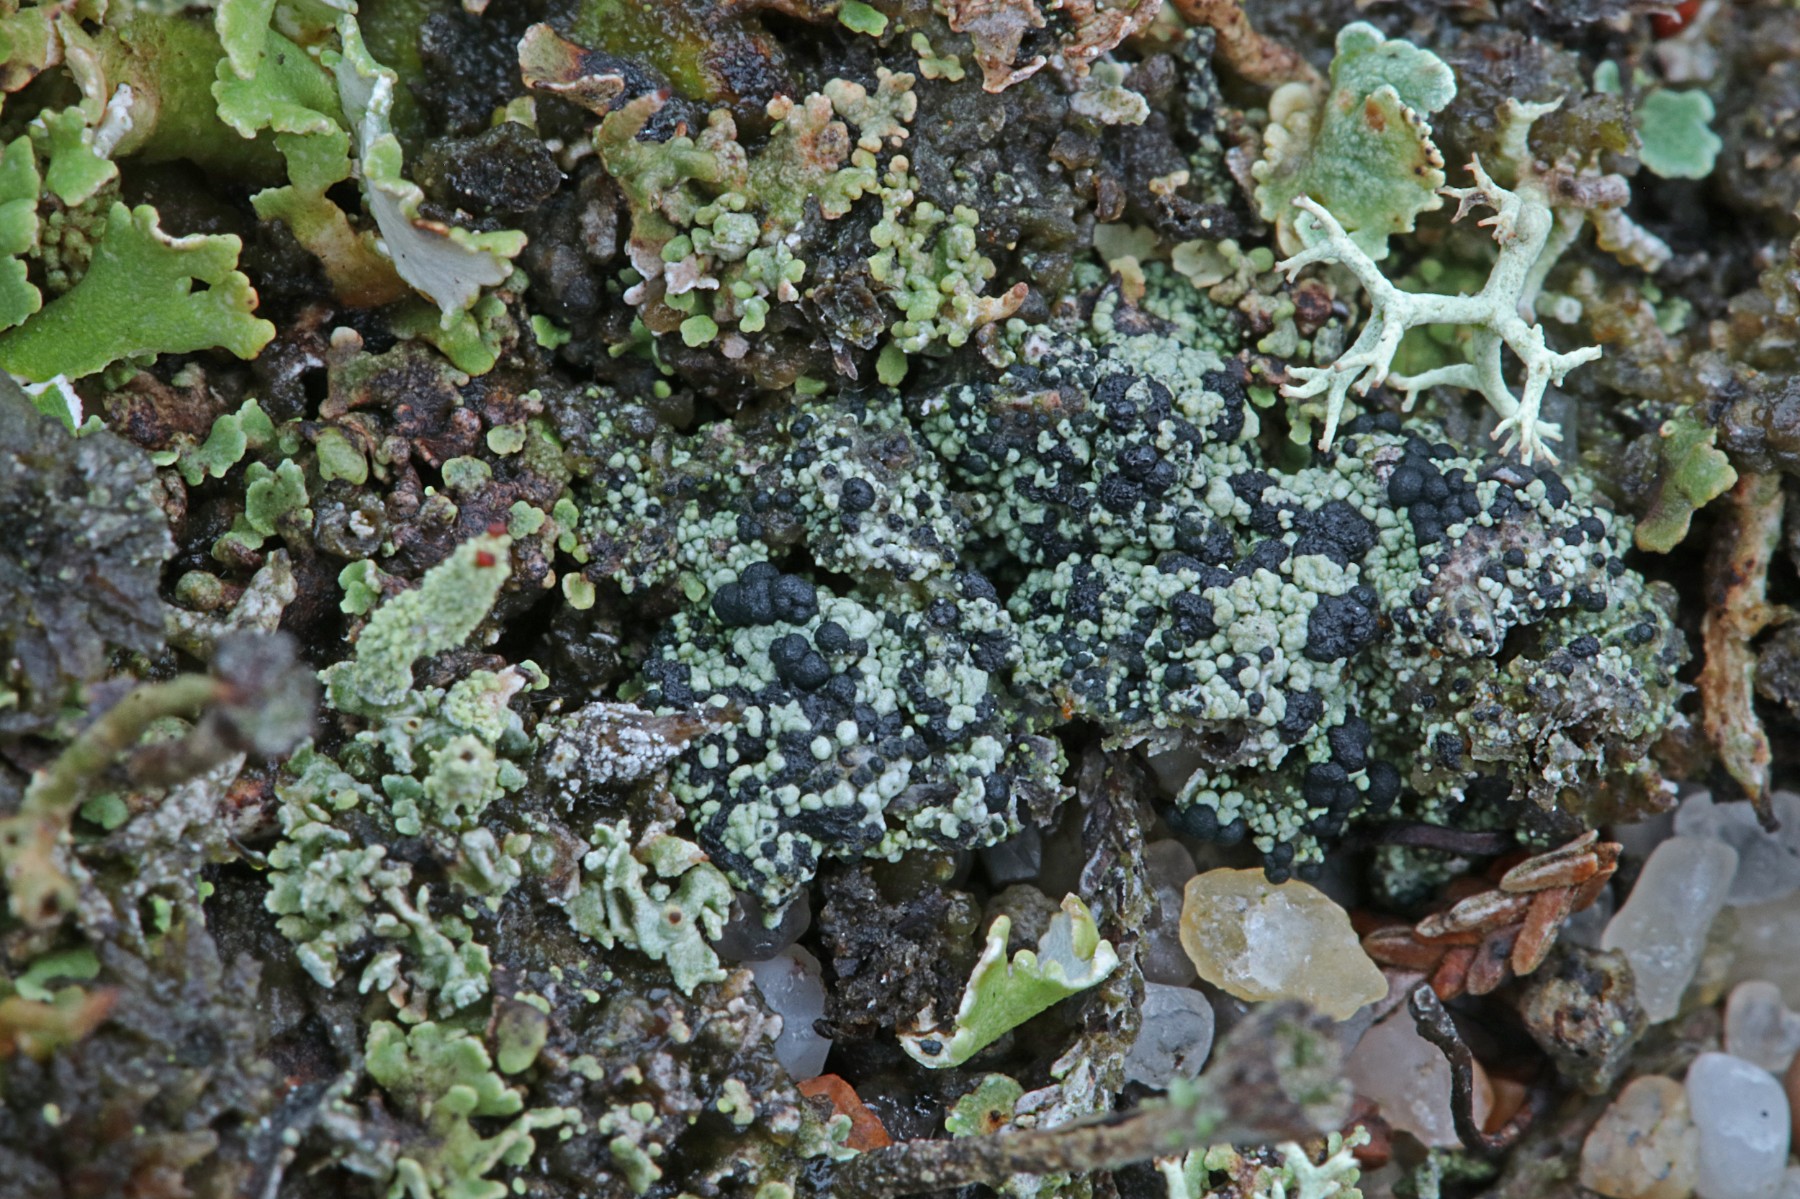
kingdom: Fungi
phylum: Ascomycota
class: Lecanoromycetes
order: Lecanorales
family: Byssolomataceae
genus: Micarea
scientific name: Micarea lignaria
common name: tørve-knaplav
